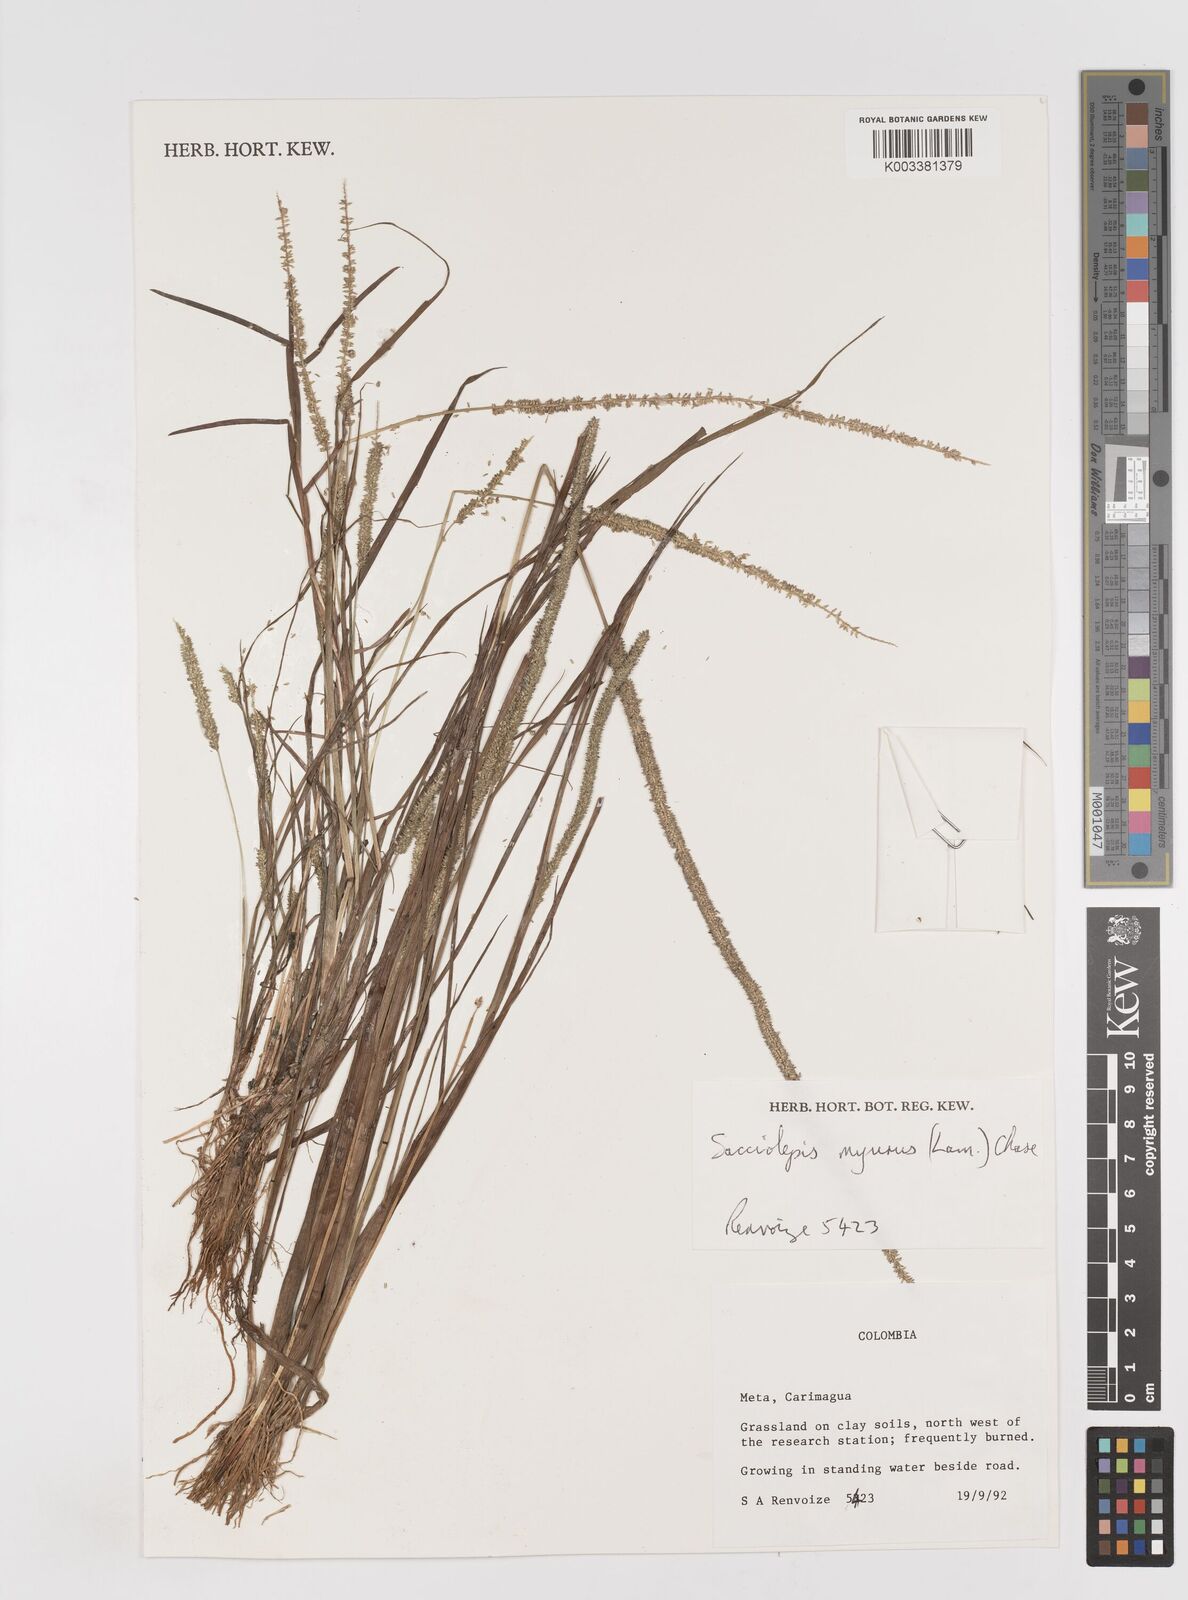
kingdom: Plantae
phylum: Tracheophyta
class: Liliopsida
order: Poales
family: Poaceae
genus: Sacciolepis
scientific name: Sacciolepis myuros
